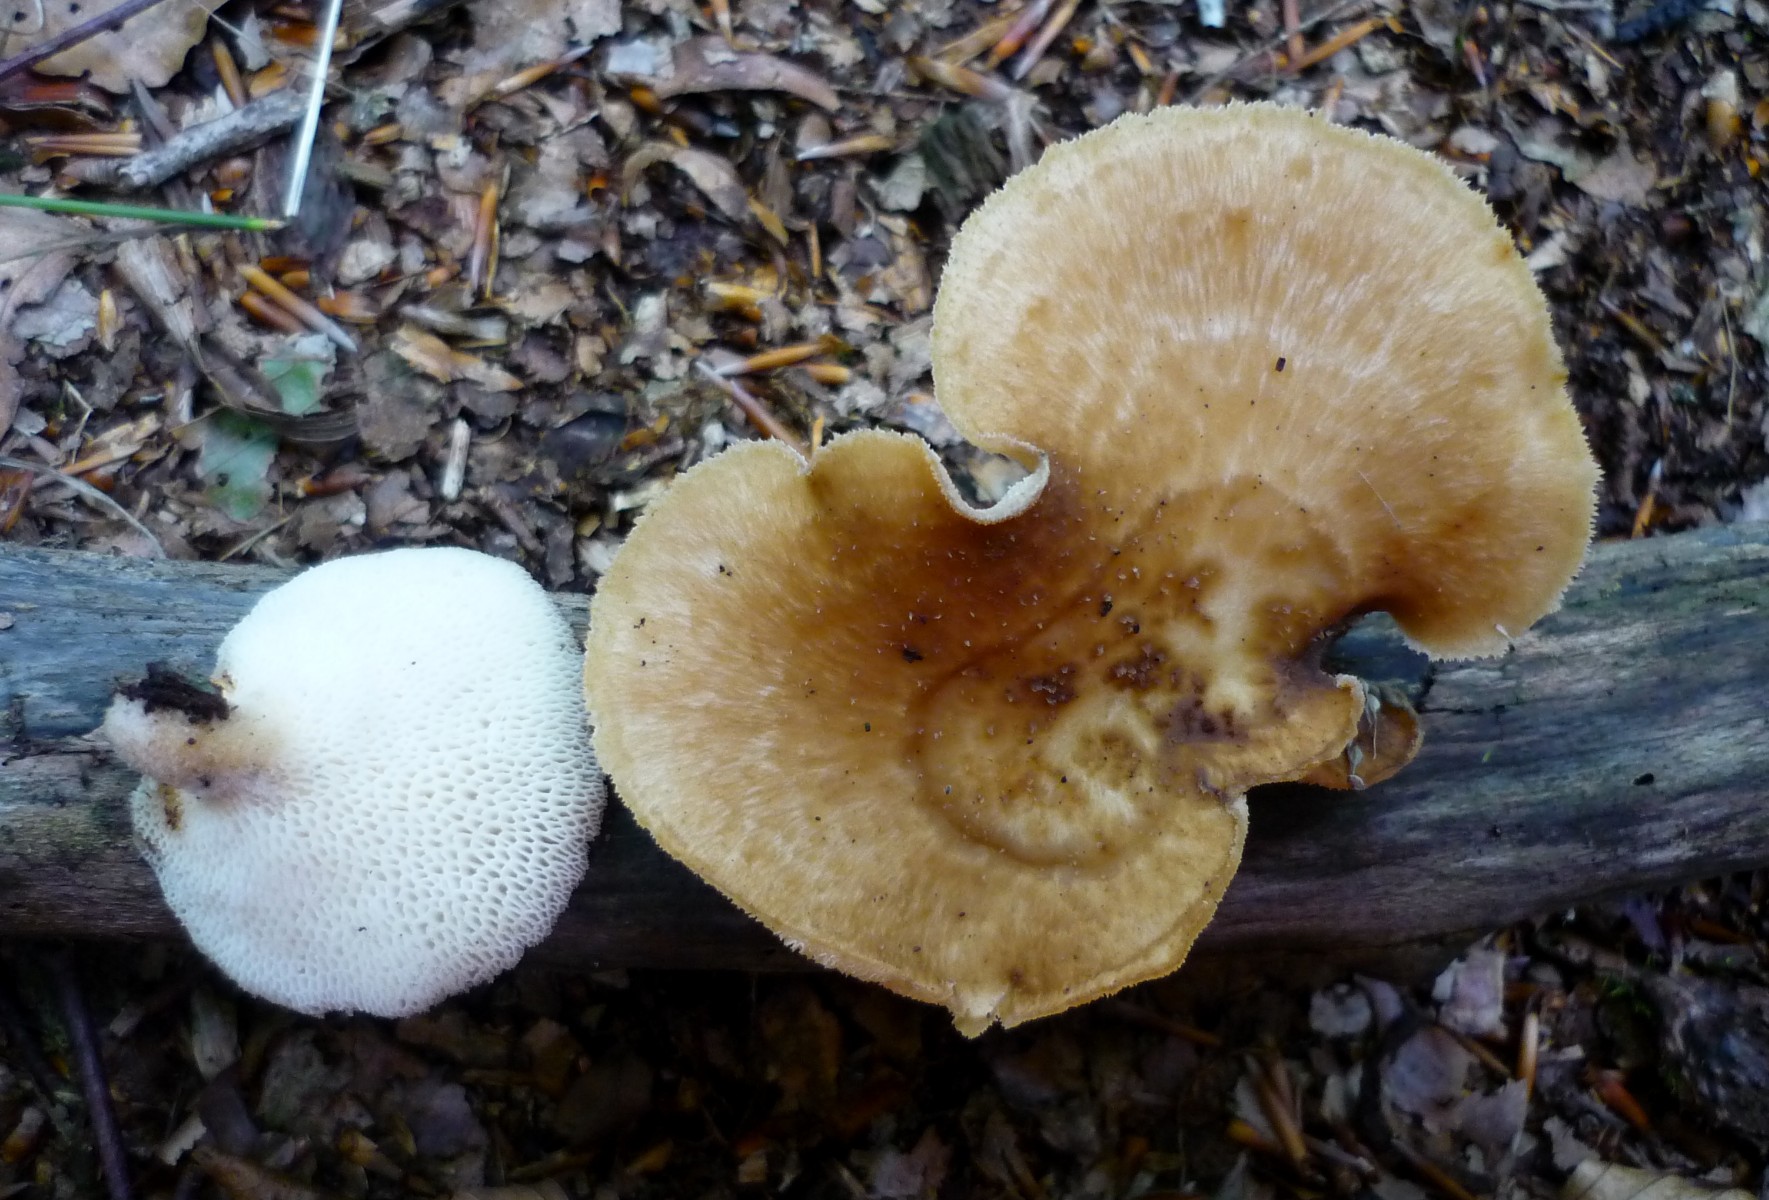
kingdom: Fungi
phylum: Basidiomycota
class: Agaricomycetes
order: Polyporales
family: Polyporaceae
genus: Polyporus
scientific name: Polyporus tuberaster
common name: knoldet stilkporesvamp
